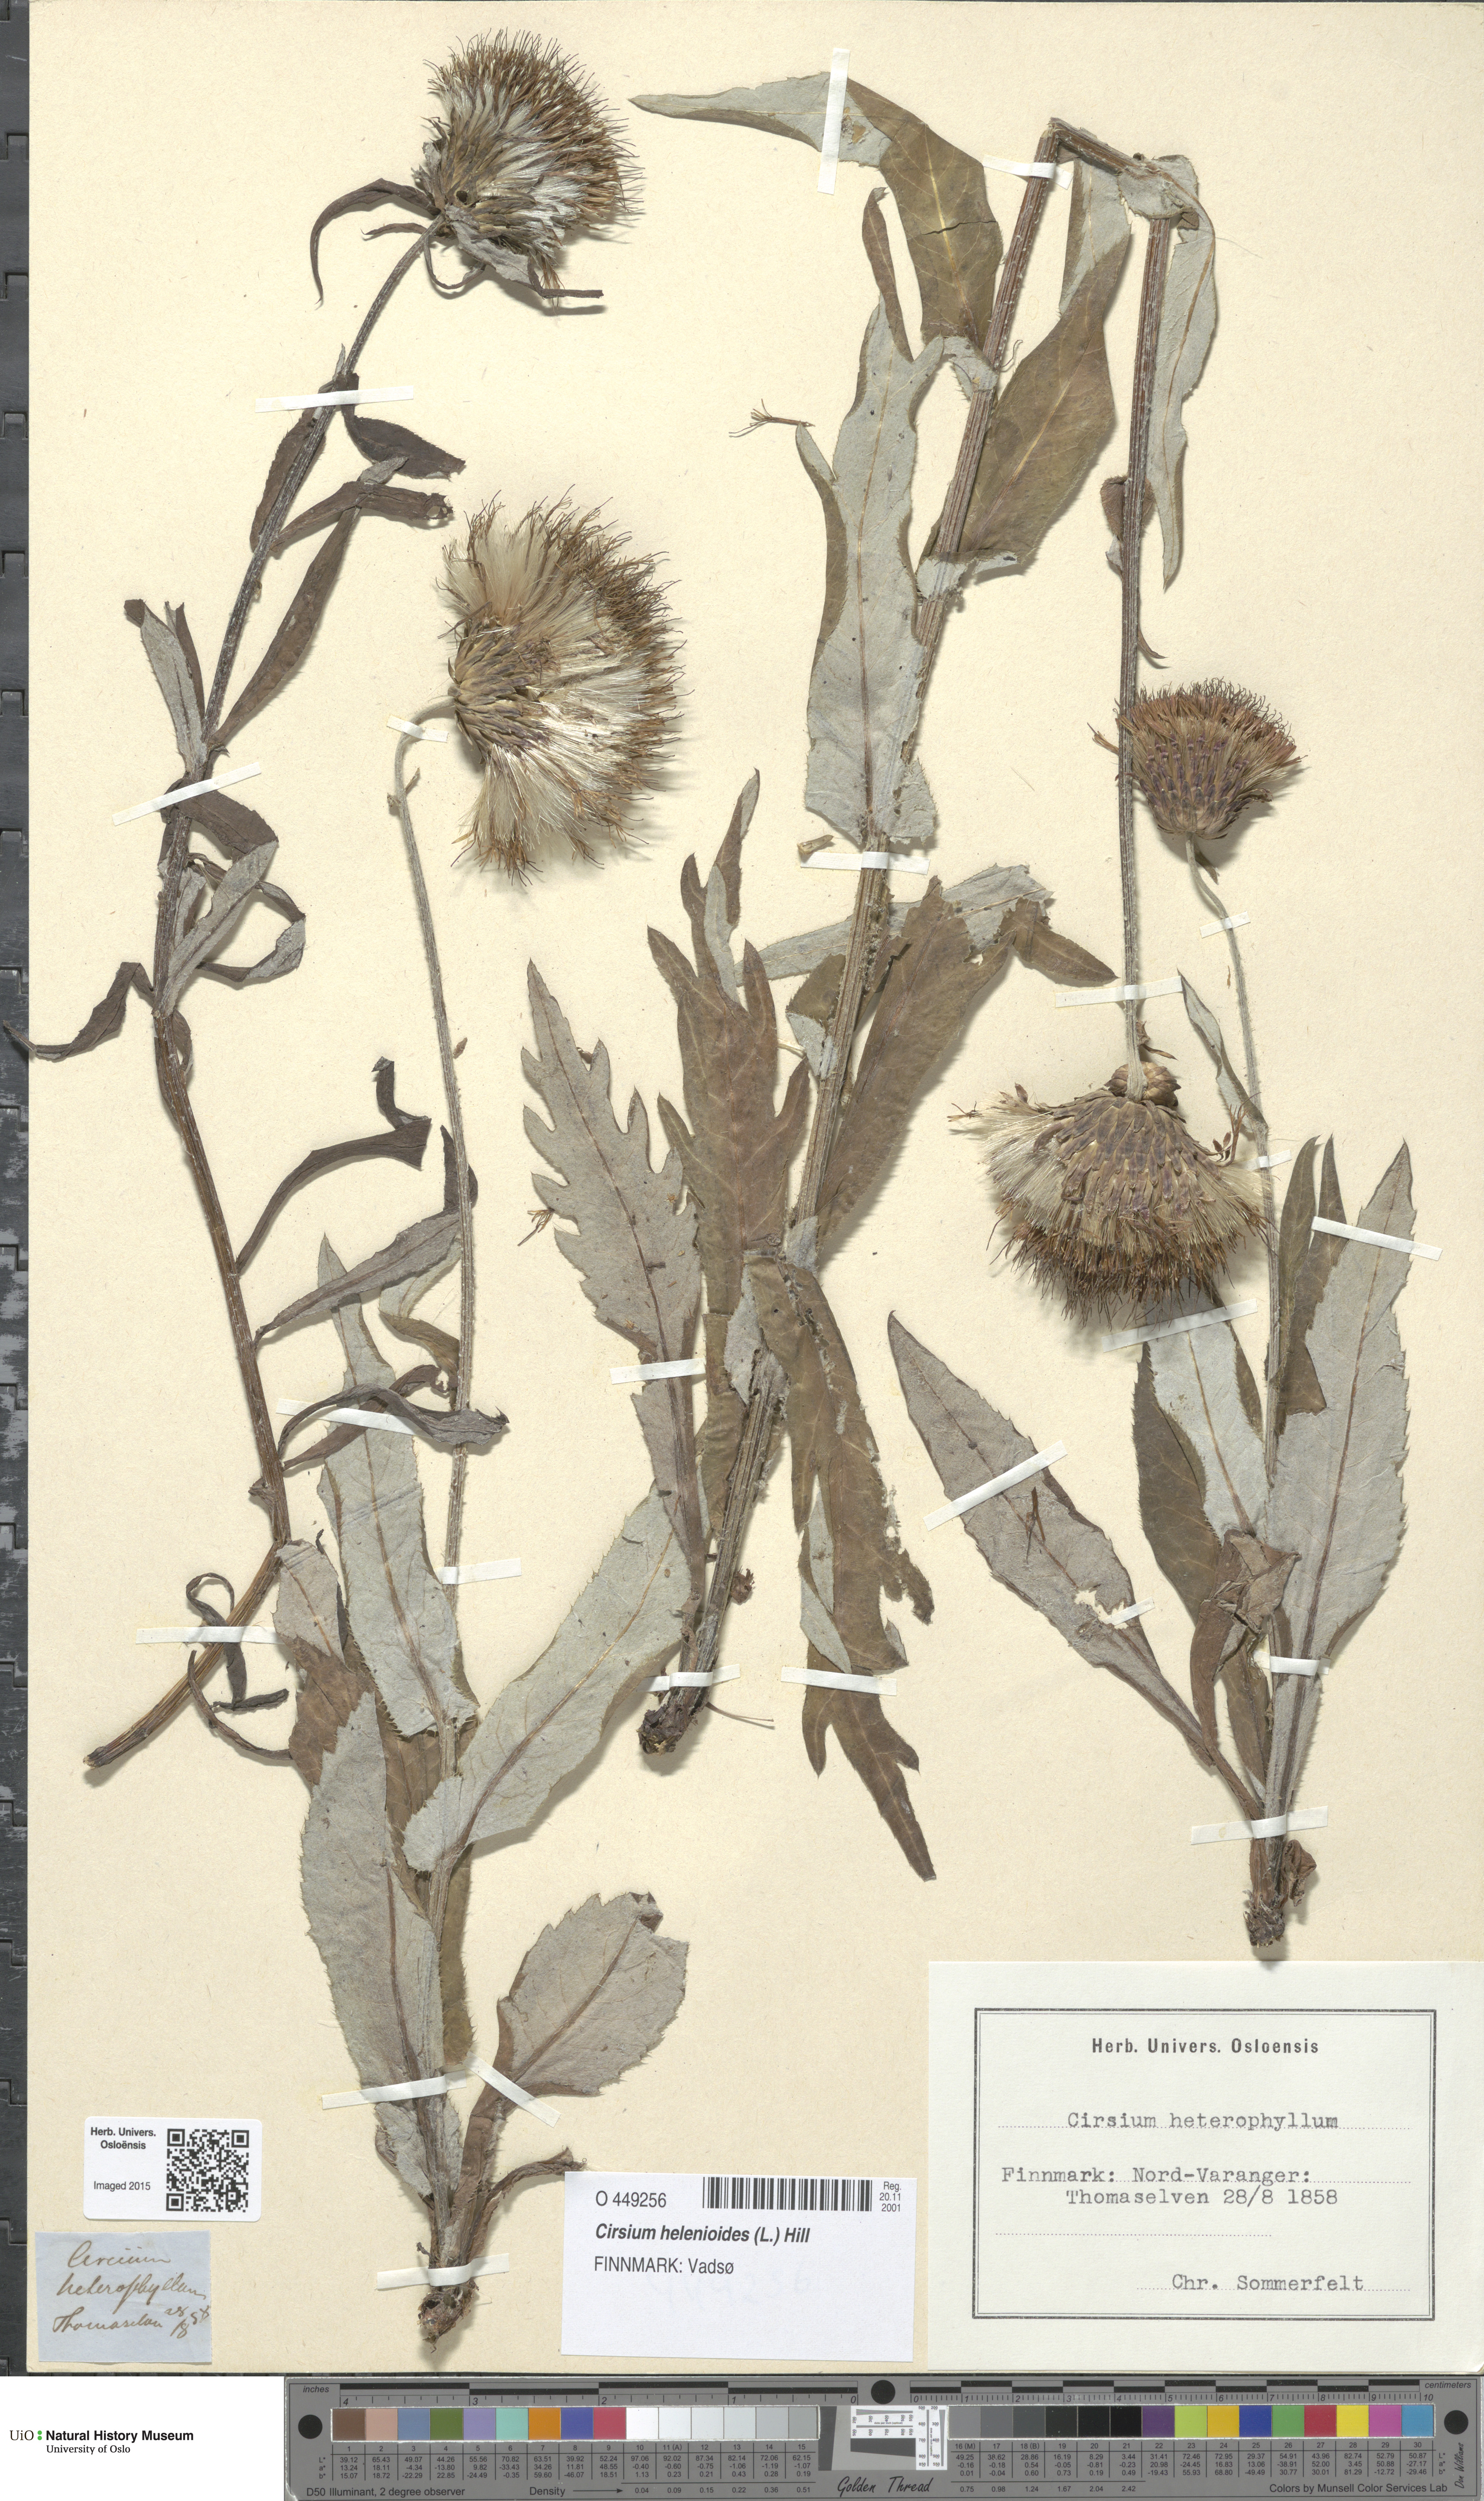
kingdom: Plantae
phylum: Tracheophyta
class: Magnoliopsida
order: Asterales
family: Asteraceae
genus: Cirsium
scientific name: Cirsium heterophyllum
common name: Melancholy thistle
